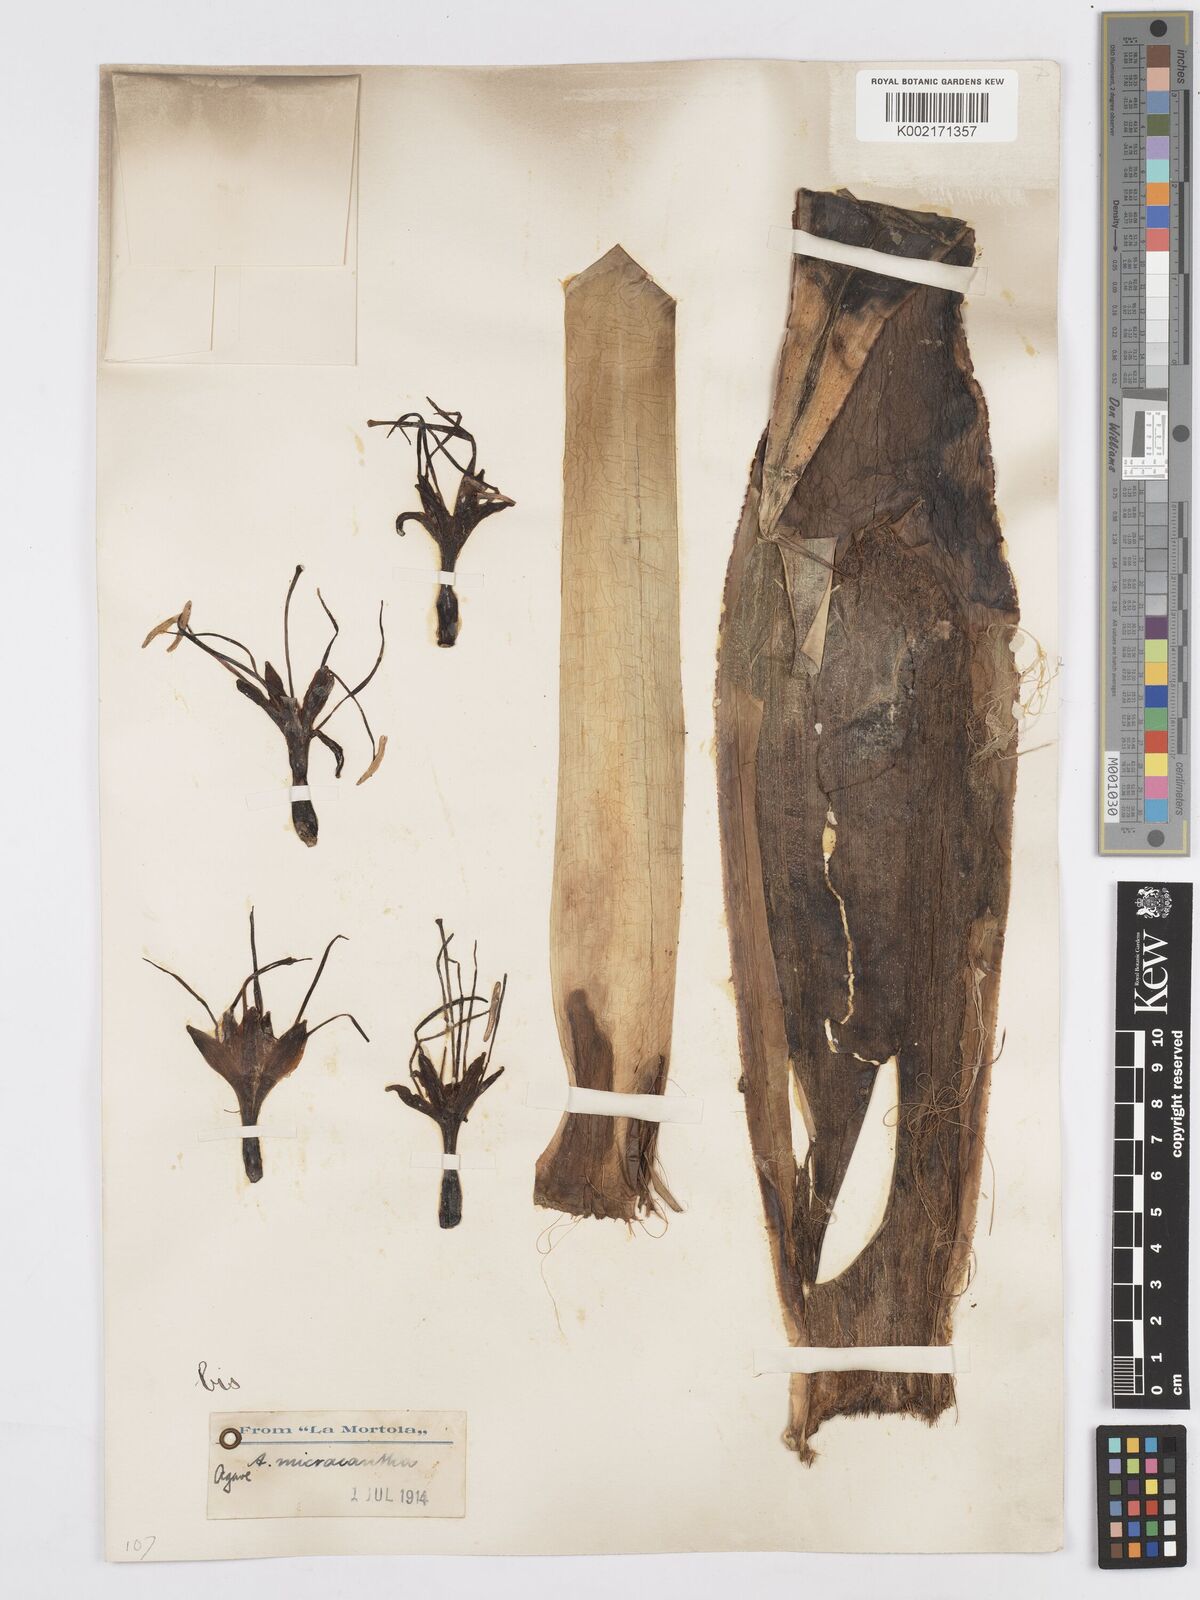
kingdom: Plantae
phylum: Tracheophyta
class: Liliopsida
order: Asparagales
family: Asparagaceae
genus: Agave
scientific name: Agave mitis
